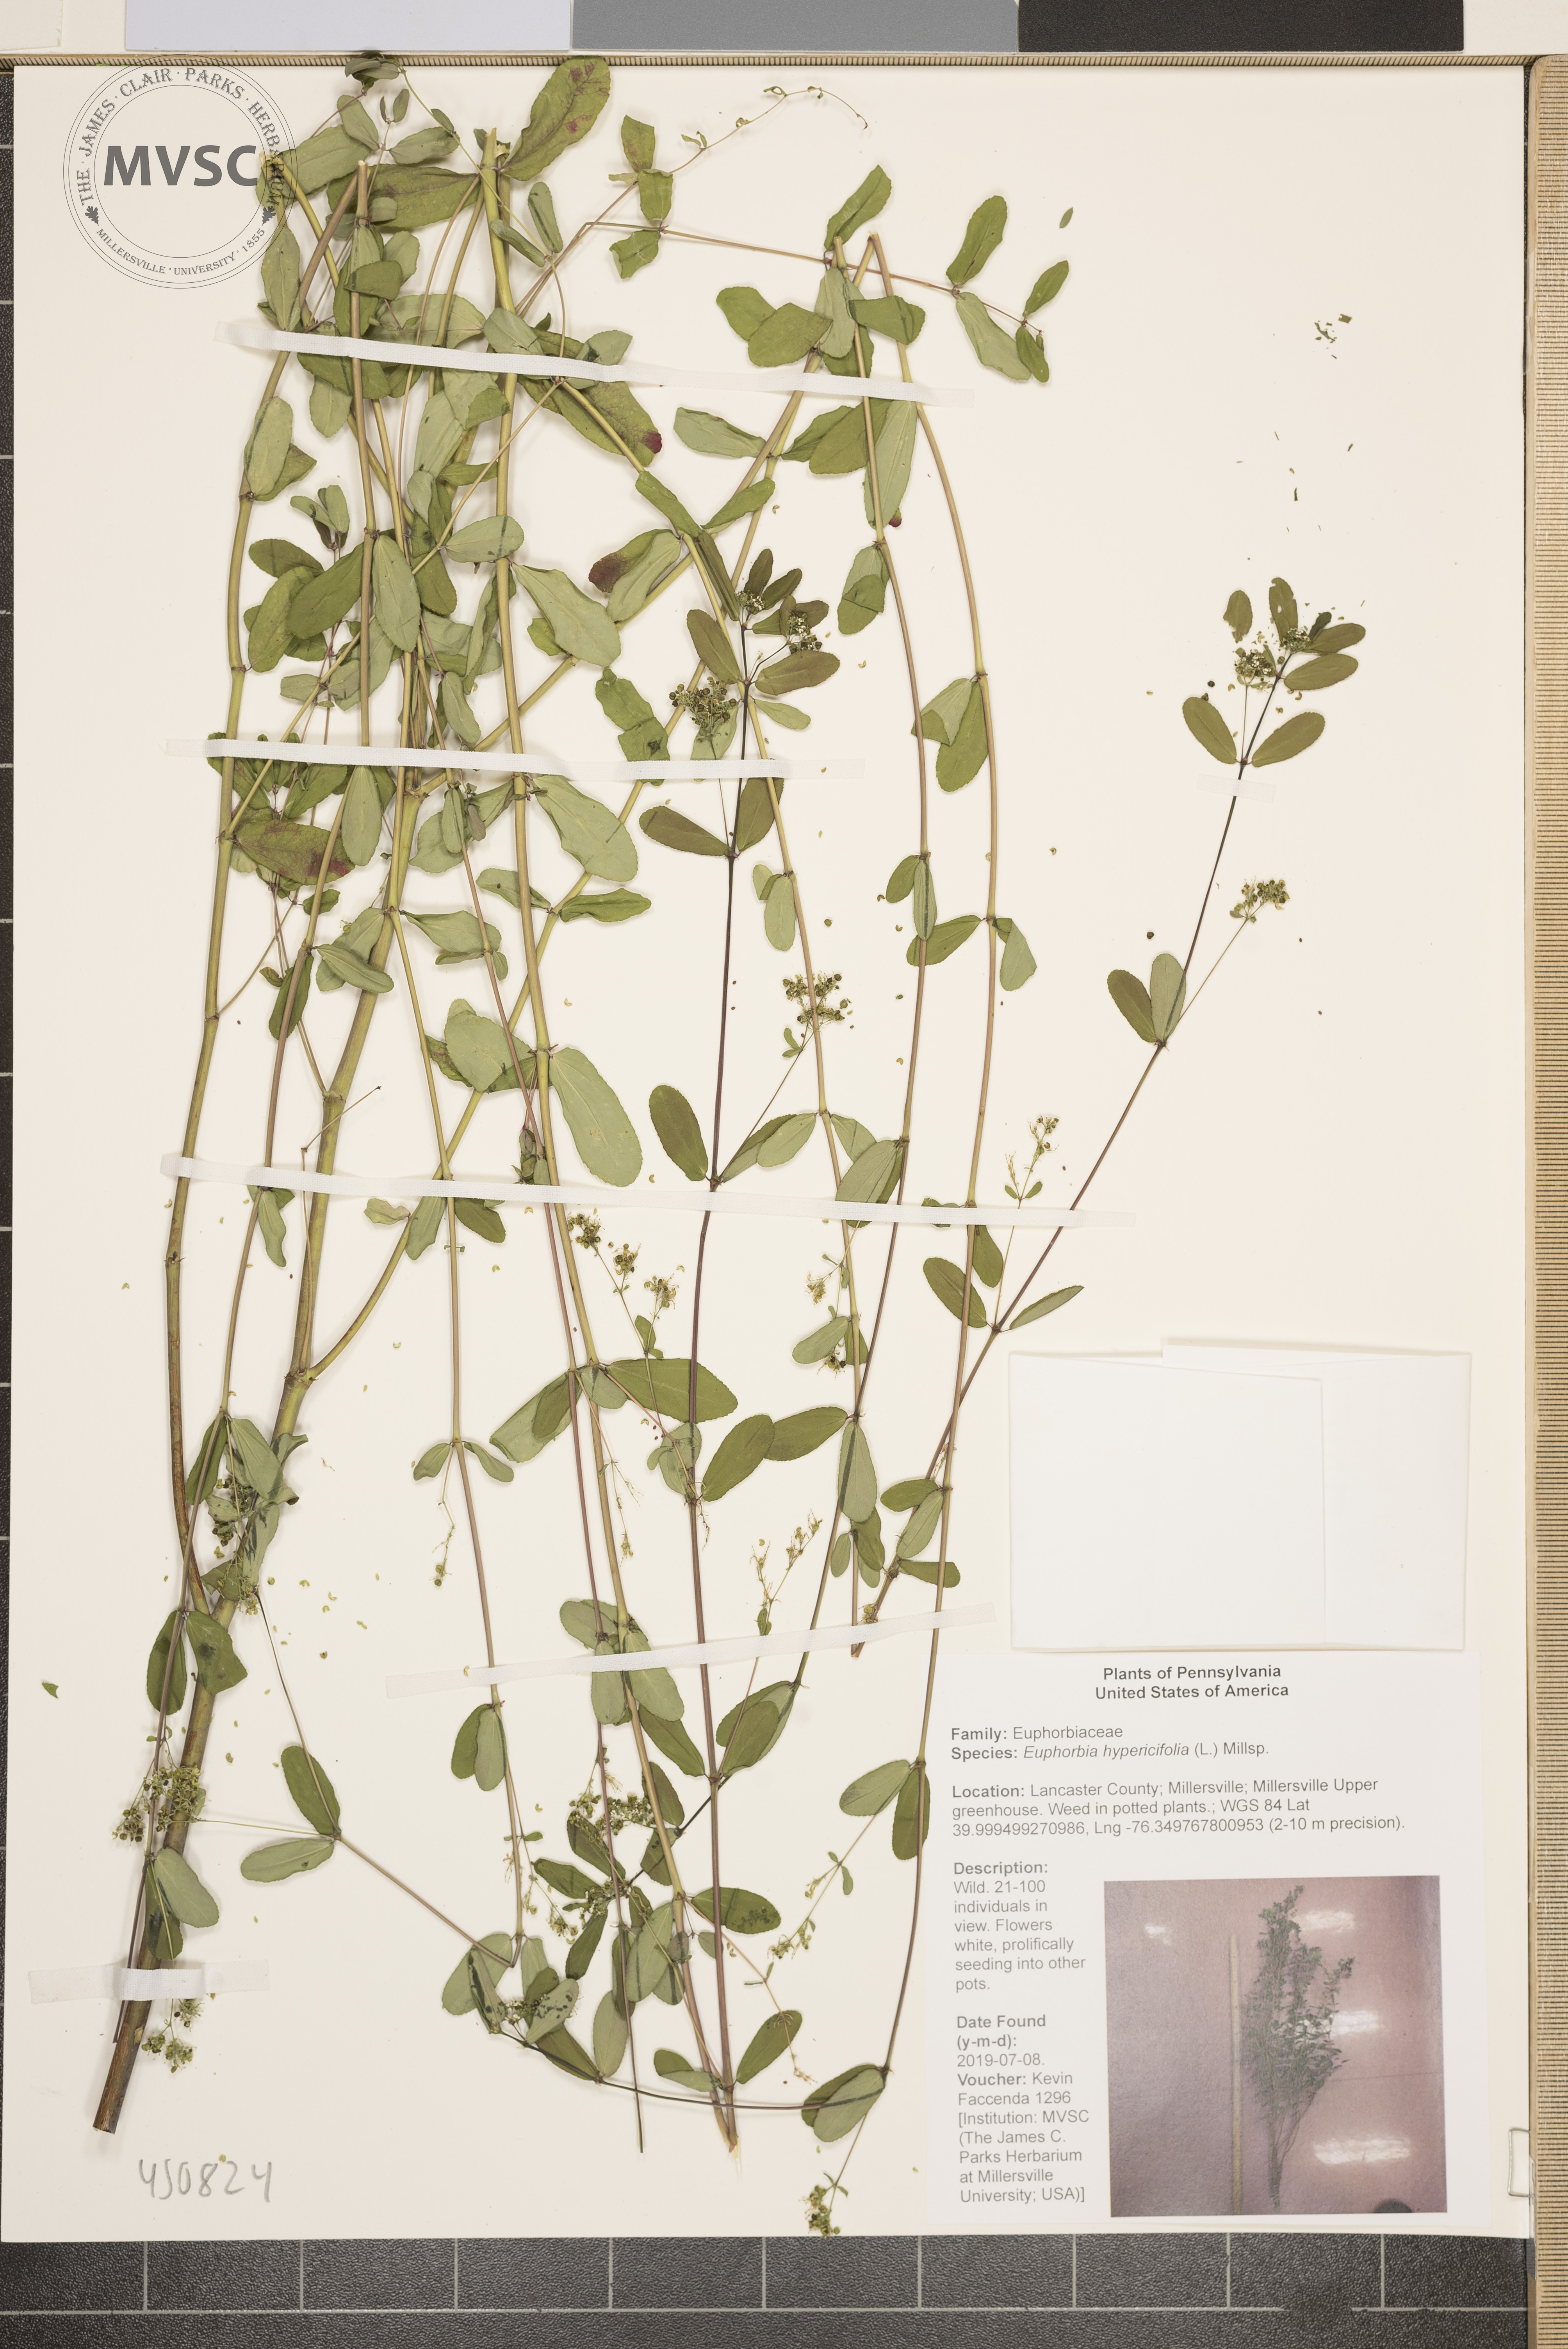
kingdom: Plantae
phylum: Tracheophyta
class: Magnoliopsida
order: Malpighiales
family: Euphorbiaceae
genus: Euphorbia
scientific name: Euphorbia hypericifolia
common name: Graceful sandmat
